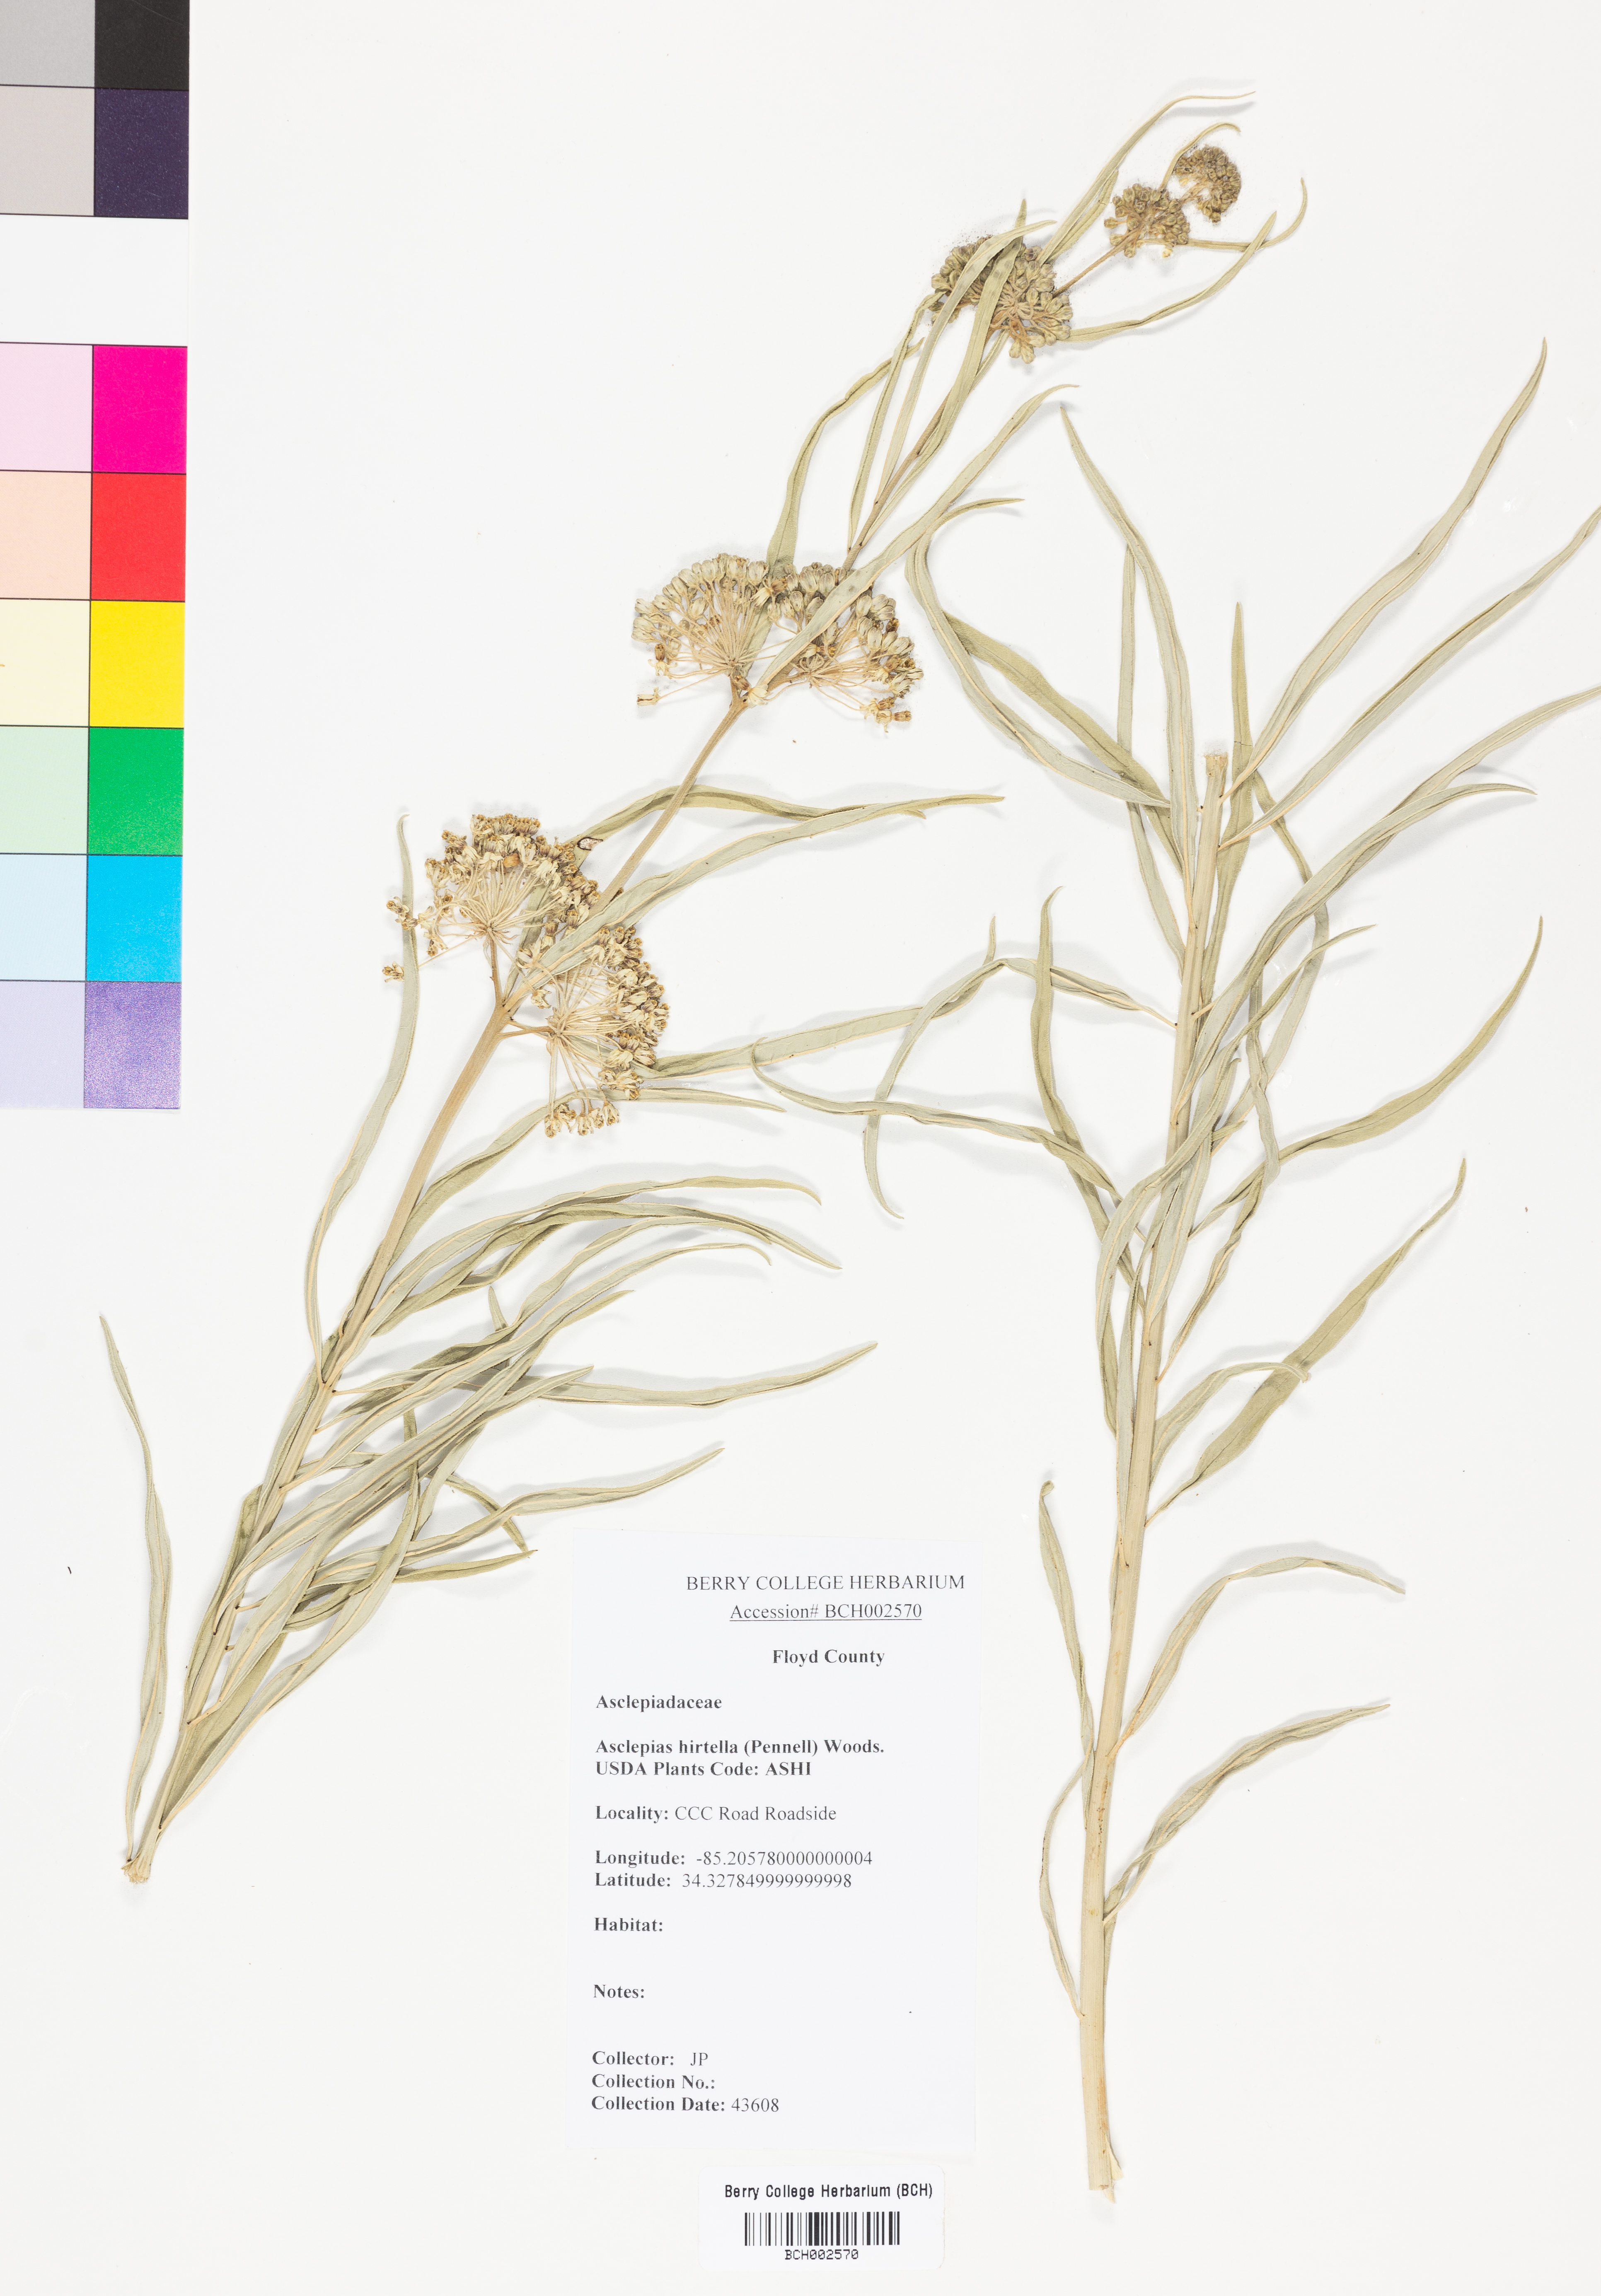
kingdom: Plantae
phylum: Tracheophyta
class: Magnoliopsida
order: Gentianales
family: Apocynaceae
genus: Asclepias
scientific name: Asclepias hirtella
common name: Prairie milkweed
